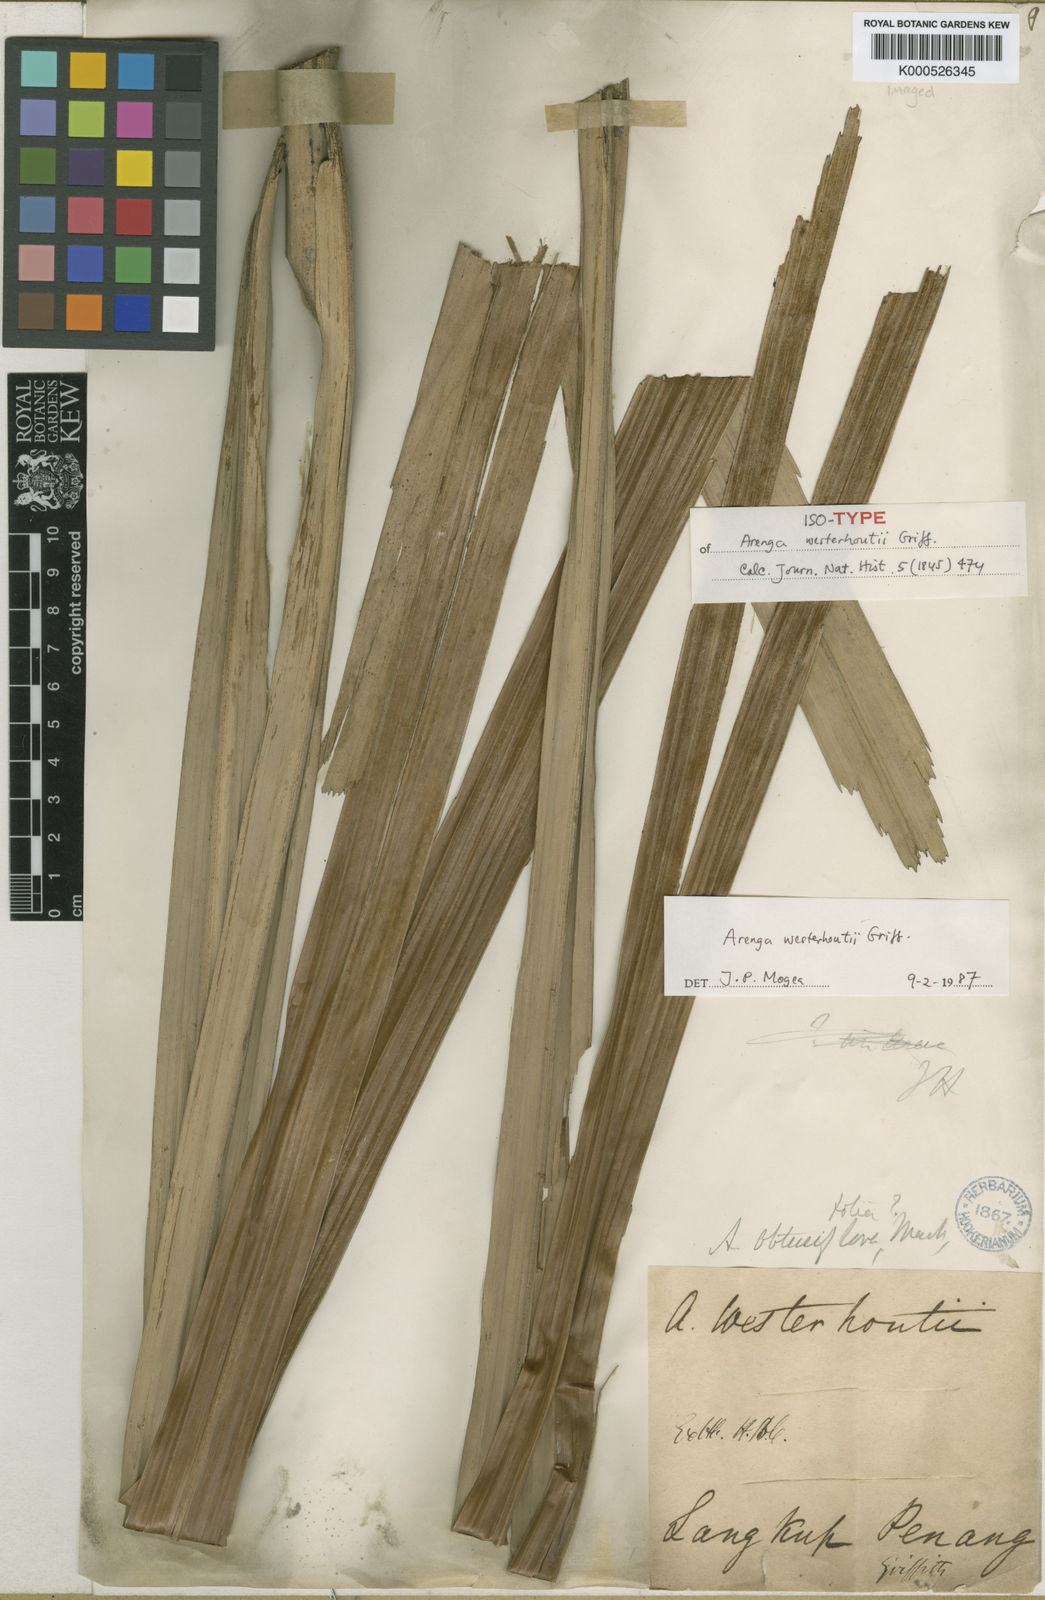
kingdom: Plantae
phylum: Tracheophyta
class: Liliopsida
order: Arecales
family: Arecaceae
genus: Arenga
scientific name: Arenga westerhoutii
